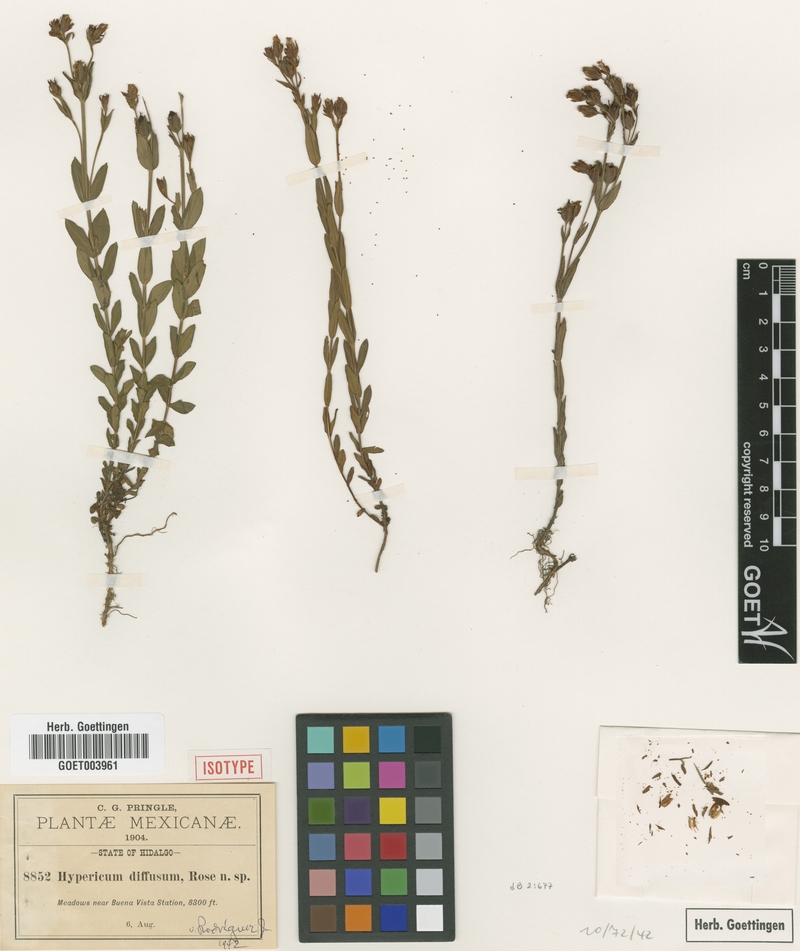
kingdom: Plantae
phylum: Tracheophyta
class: Magnoliopsida
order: Malpighiales
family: Hypericaceae
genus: Hypericum
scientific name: Hypericum pumilum
